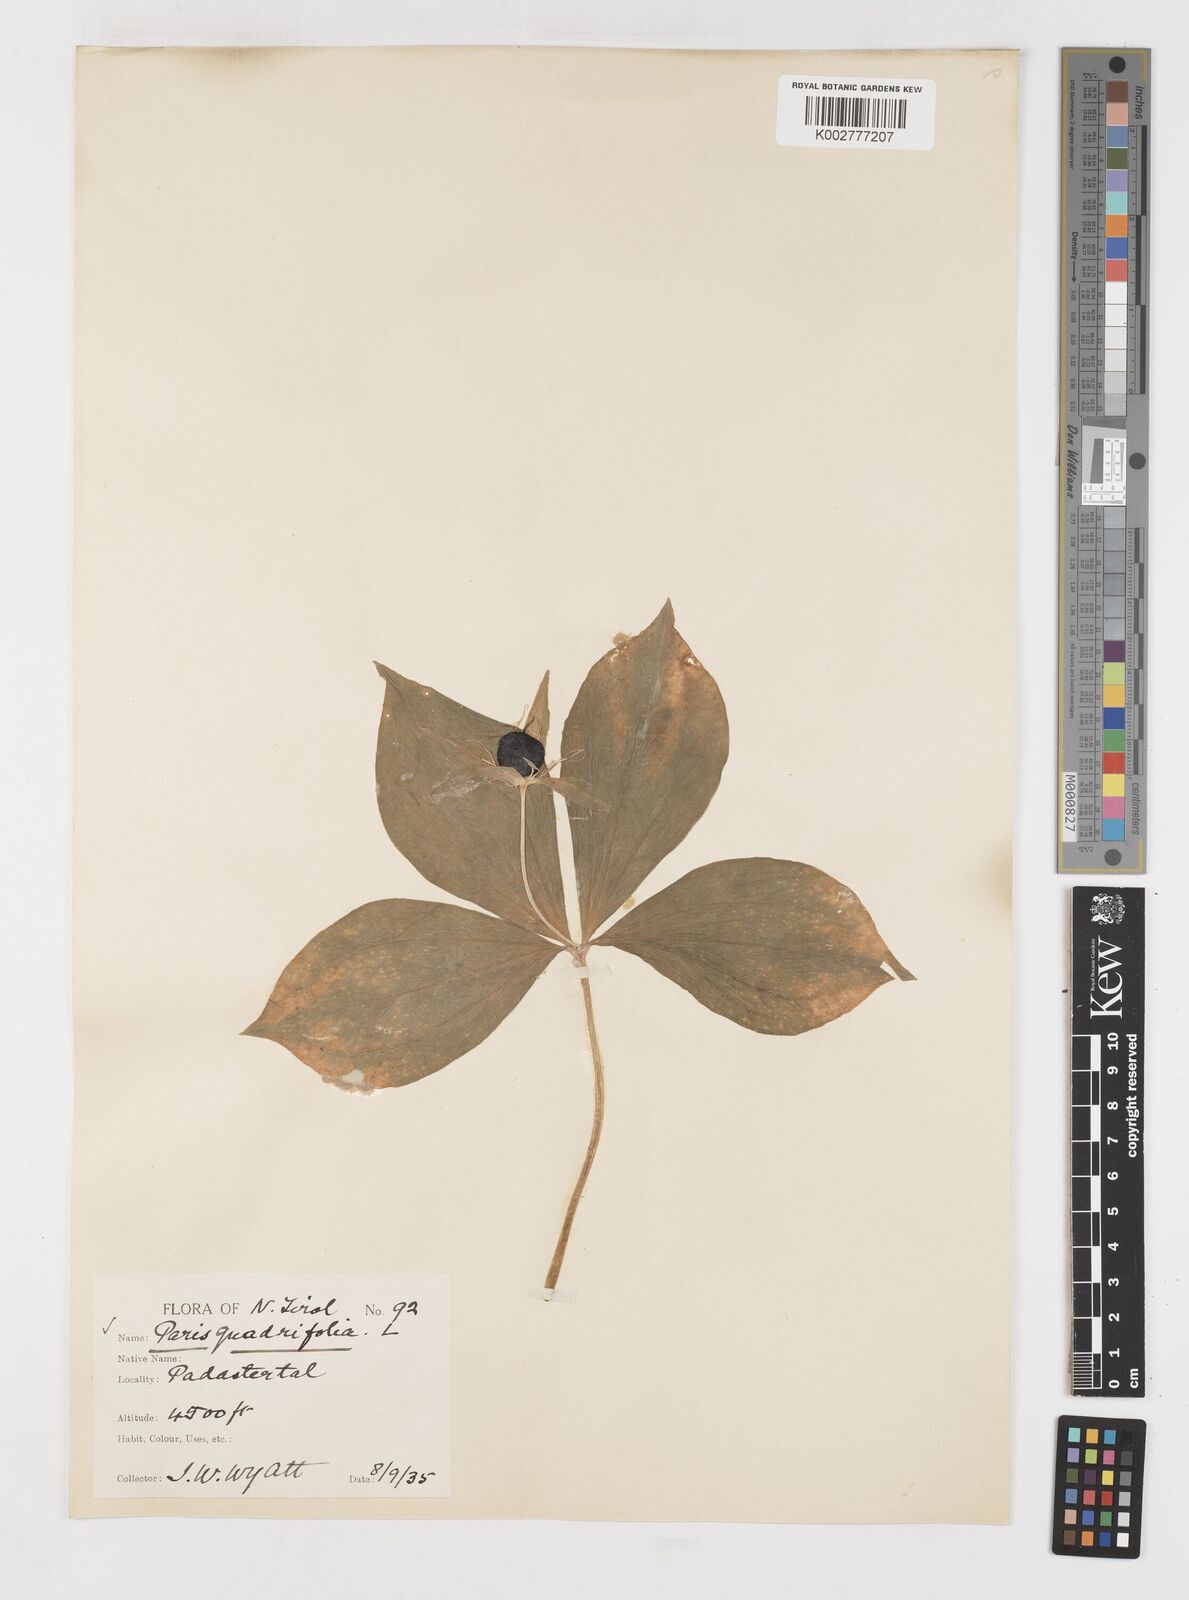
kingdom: Plantae
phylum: Tracheophyta
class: Liliopsida
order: Liliales
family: Melanthiaceae
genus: Paris
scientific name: Paris quadrifolia
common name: Herb-paris
